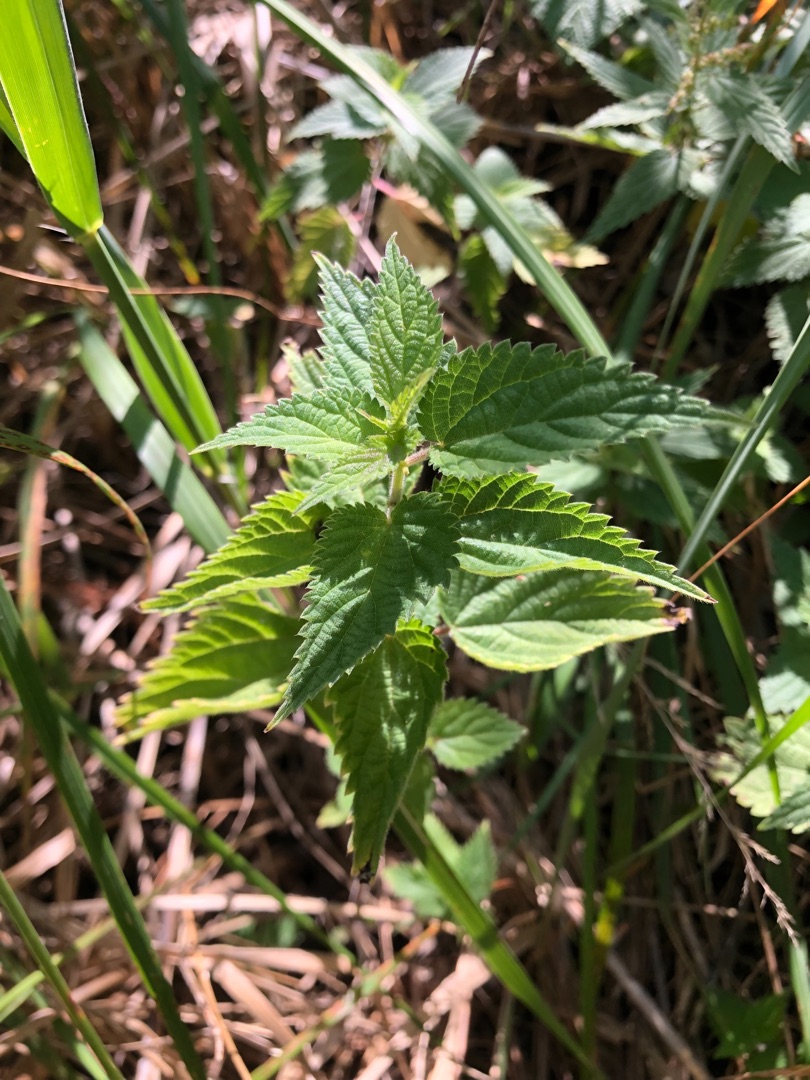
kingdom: Plantae
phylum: Tracheophyta
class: Magnoliopsida
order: Rosales
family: Urticaceae
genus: Urtica
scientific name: Urtica dioica
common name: Stor nælde
